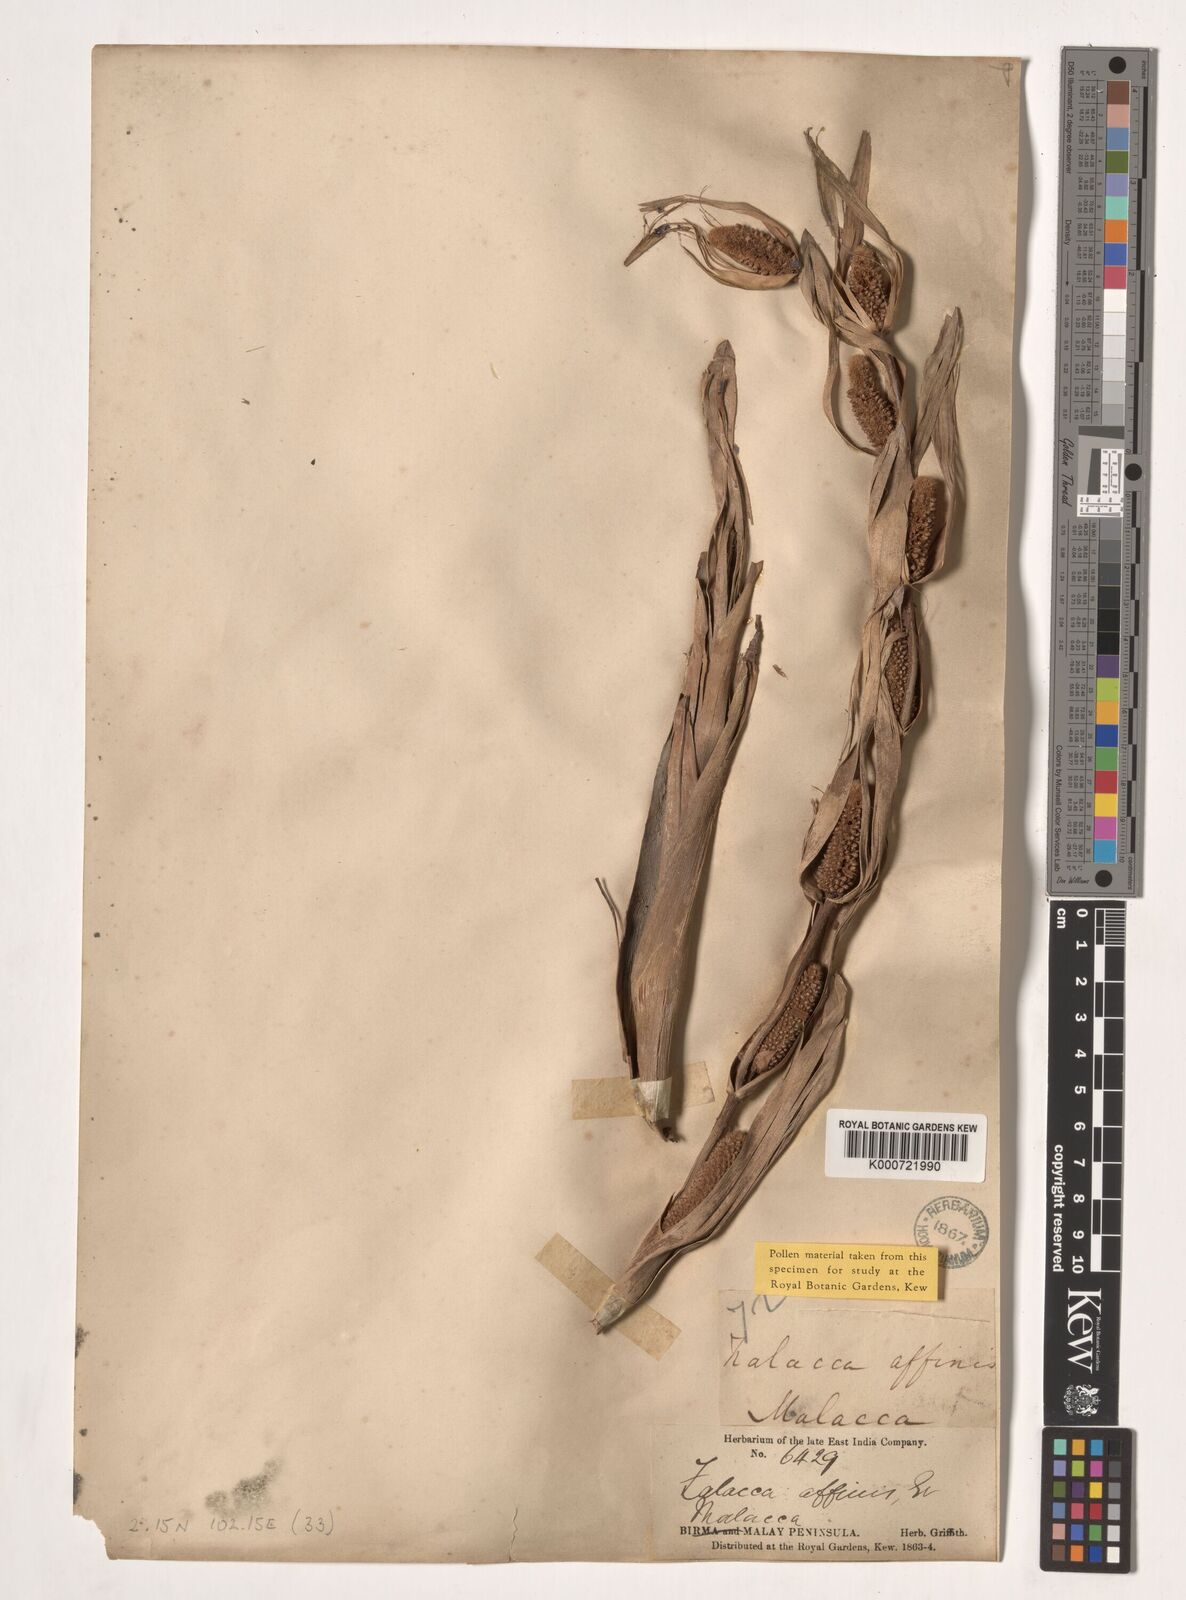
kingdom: Plantae
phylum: Tracheophyta
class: Liliopsida
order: Arecales
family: Arecaceae
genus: Salacca
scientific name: Salacca affinis
